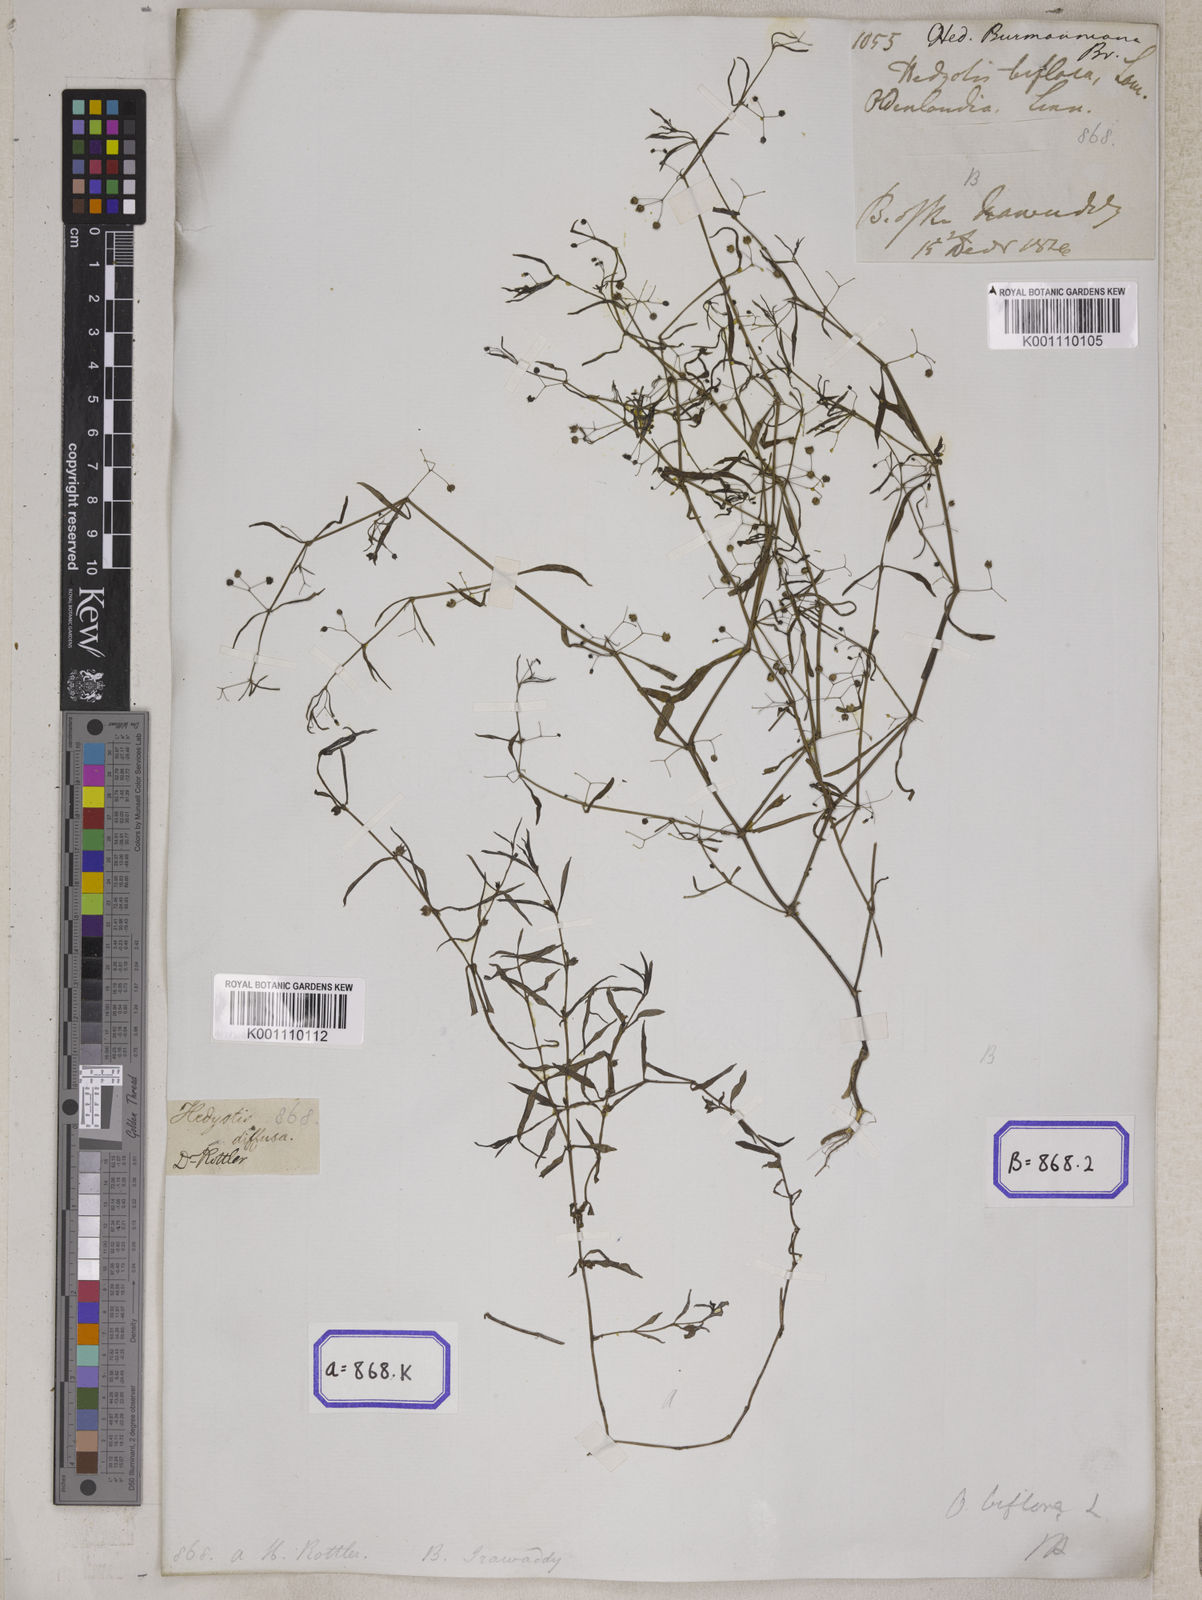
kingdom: Plantae
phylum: Tracheophyta
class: Magnoliopsida
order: Gentianales
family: Rubiaceae
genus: Hedyotis
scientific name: Hedyotis
